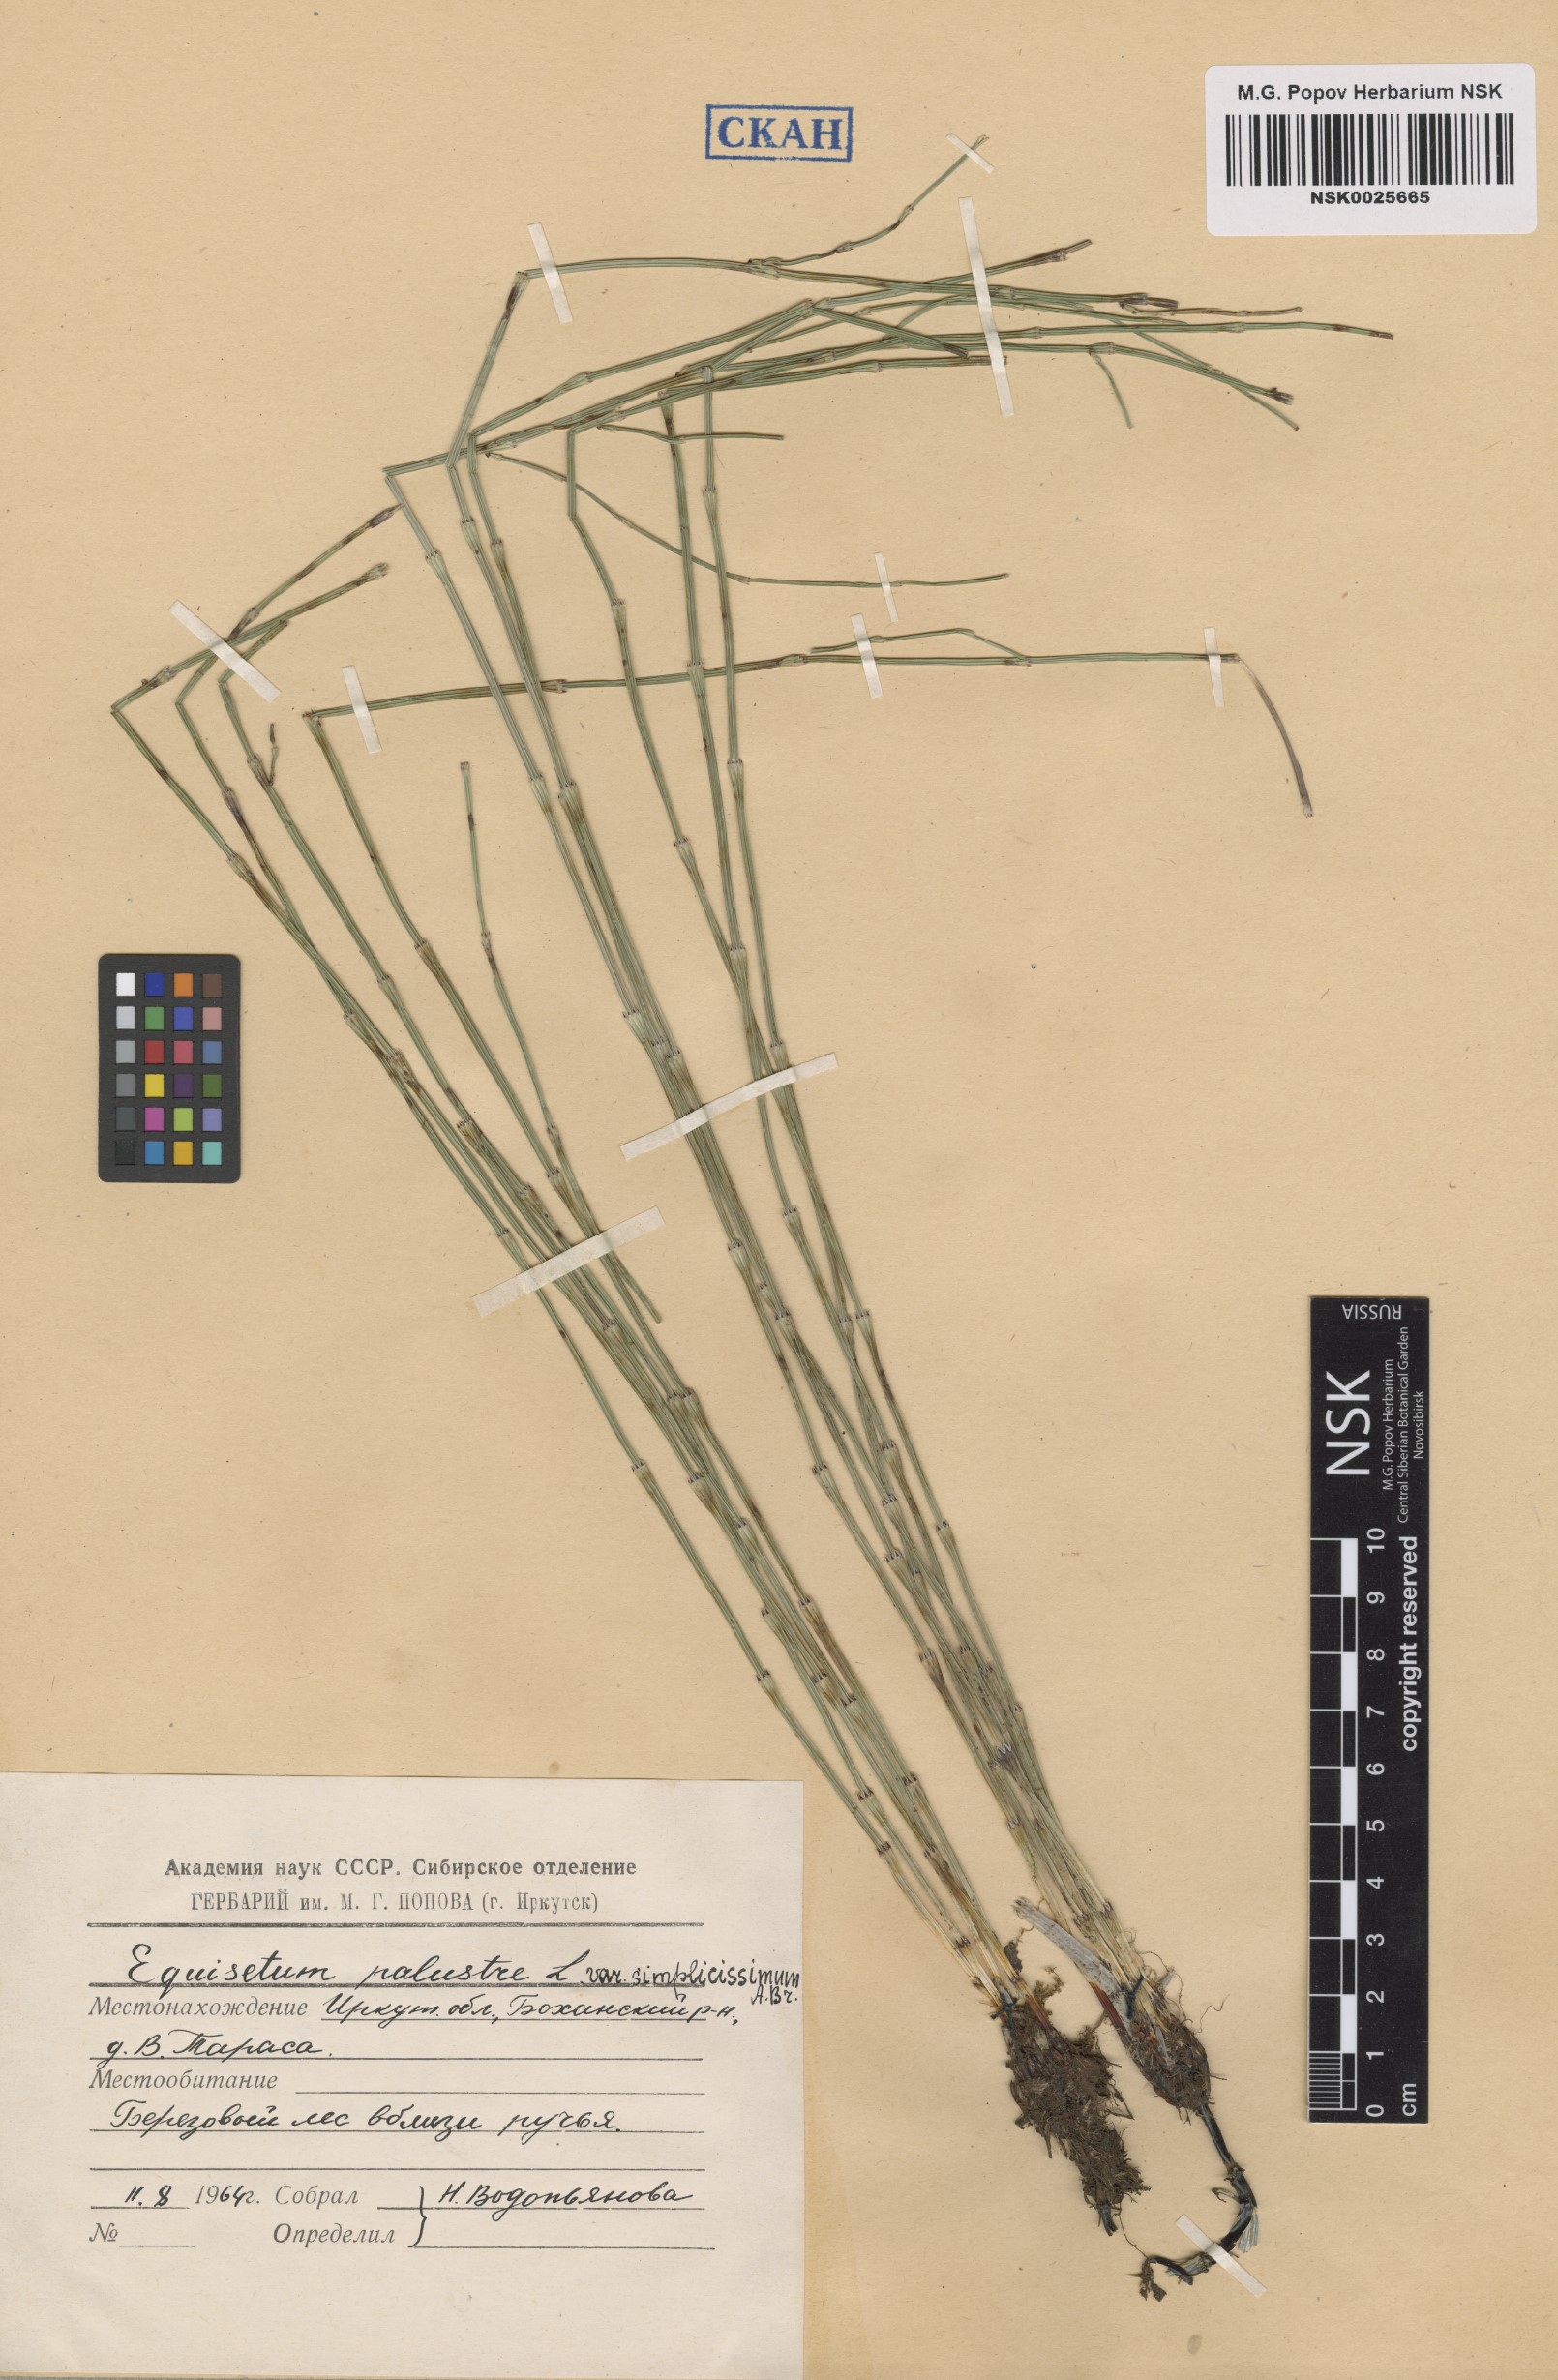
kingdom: Plantae
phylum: Tracheophyta
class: Polypodiopsida
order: Equisetales
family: Equisetaceae
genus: Equisetum
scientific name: Equisetum palustre
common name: Marsh horsetail
